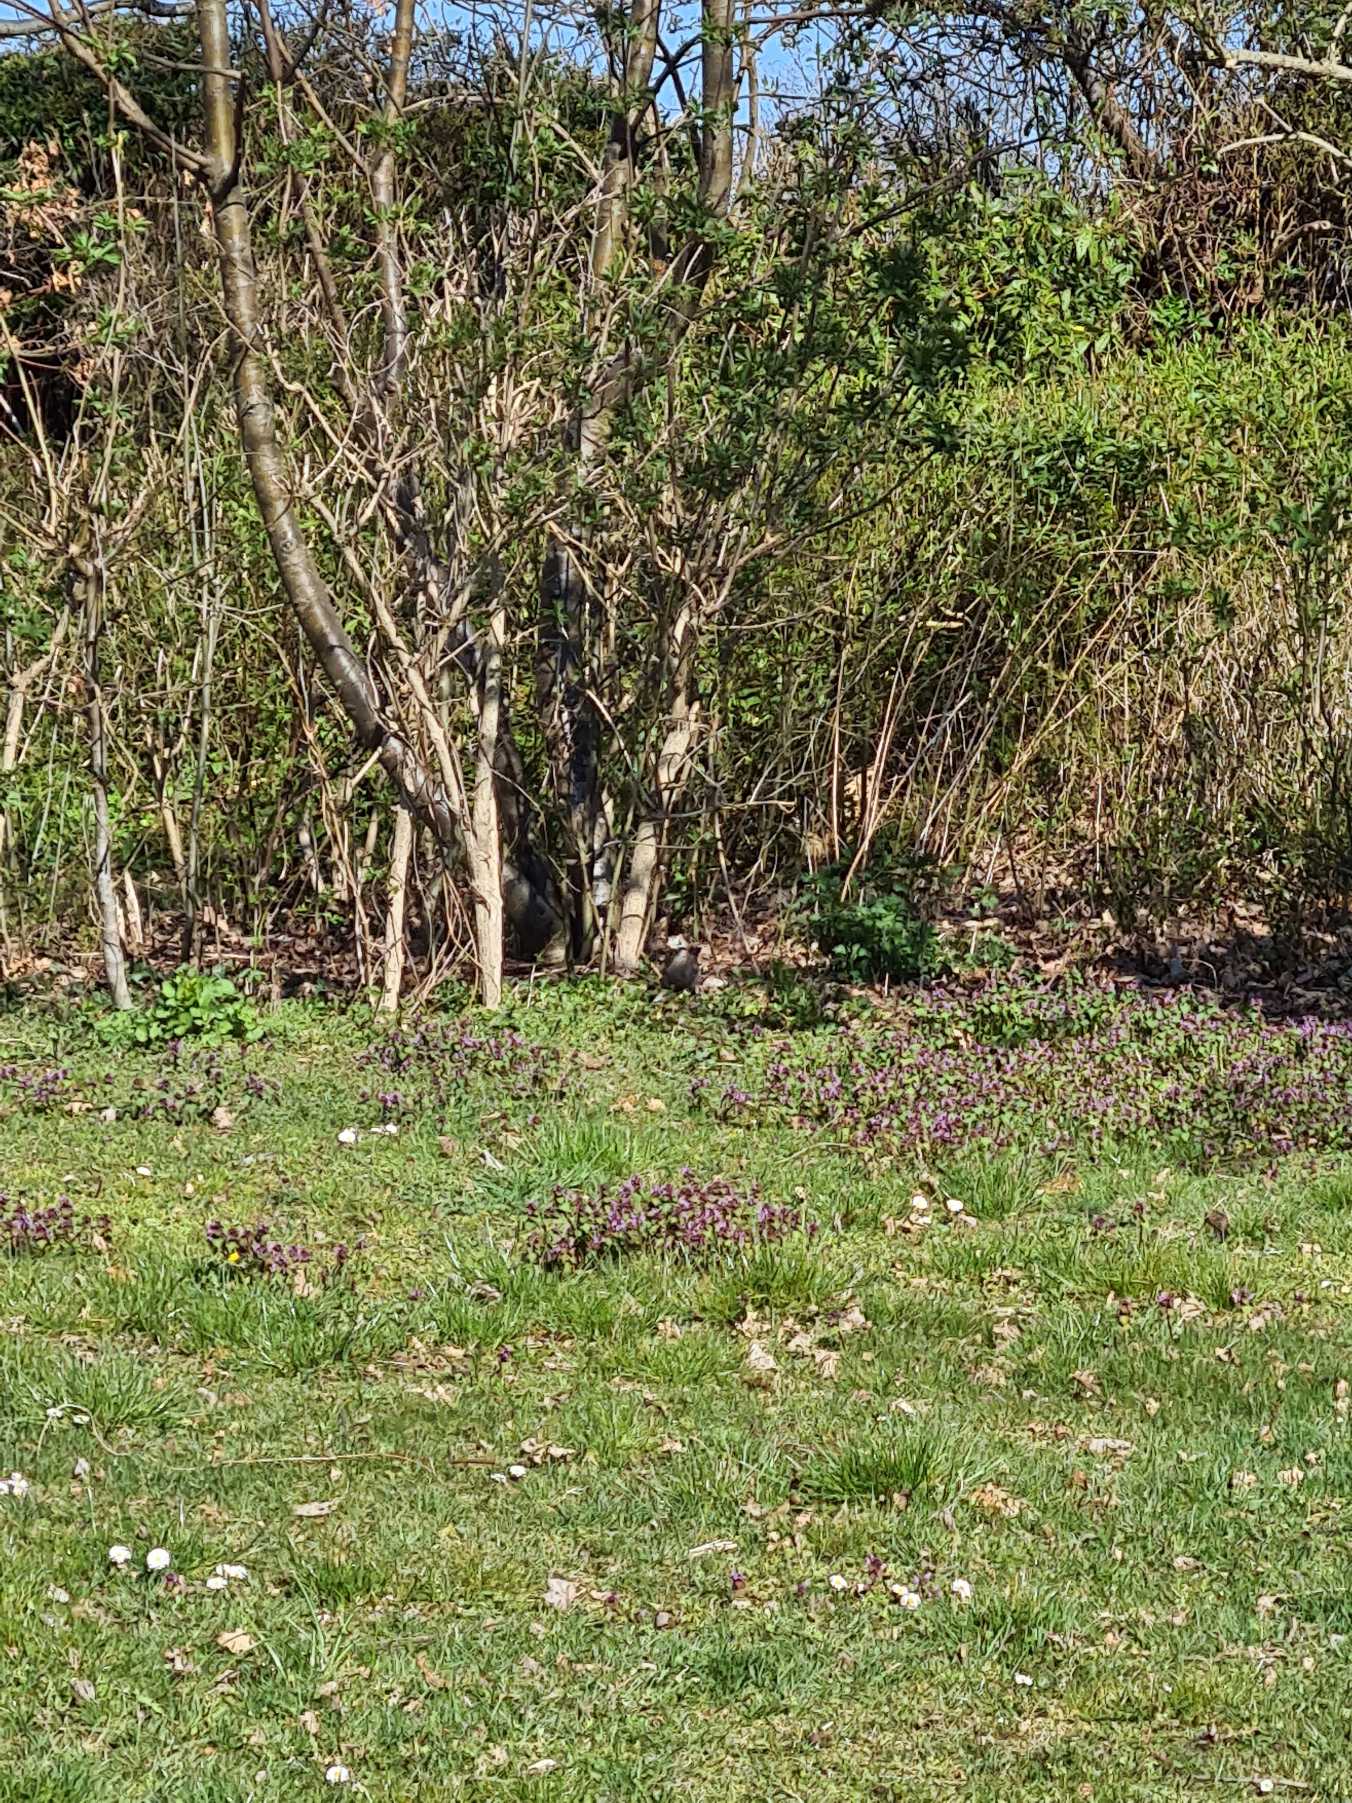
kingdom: Animalia
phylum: Chordata
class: Aves
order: Passeriformes
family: Corvidae
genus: Garrulus
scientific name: Garrulus glandarius
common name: Skovskade
